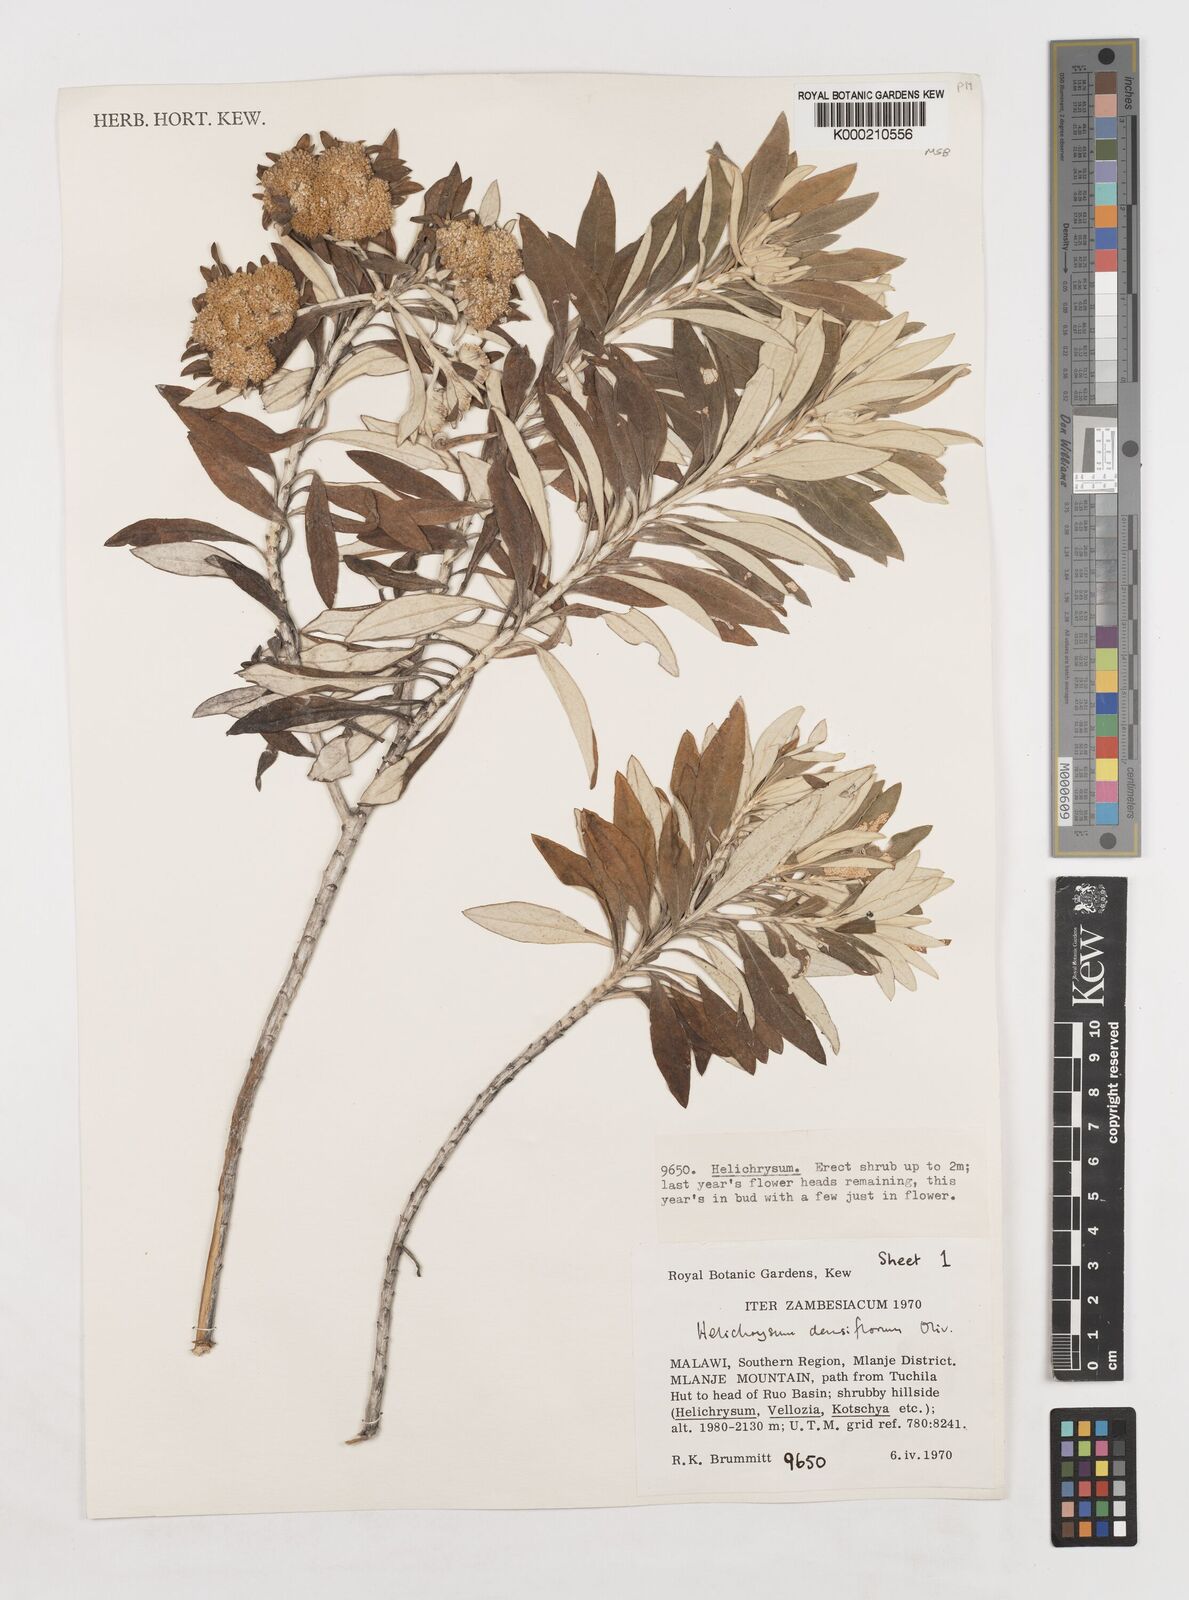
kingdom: Plantae
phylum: Tracheophyta
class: Magnoliopsida
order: Asterales
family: Asteraceae
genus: Helichrysum
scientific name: Helichrysum densiflorum
